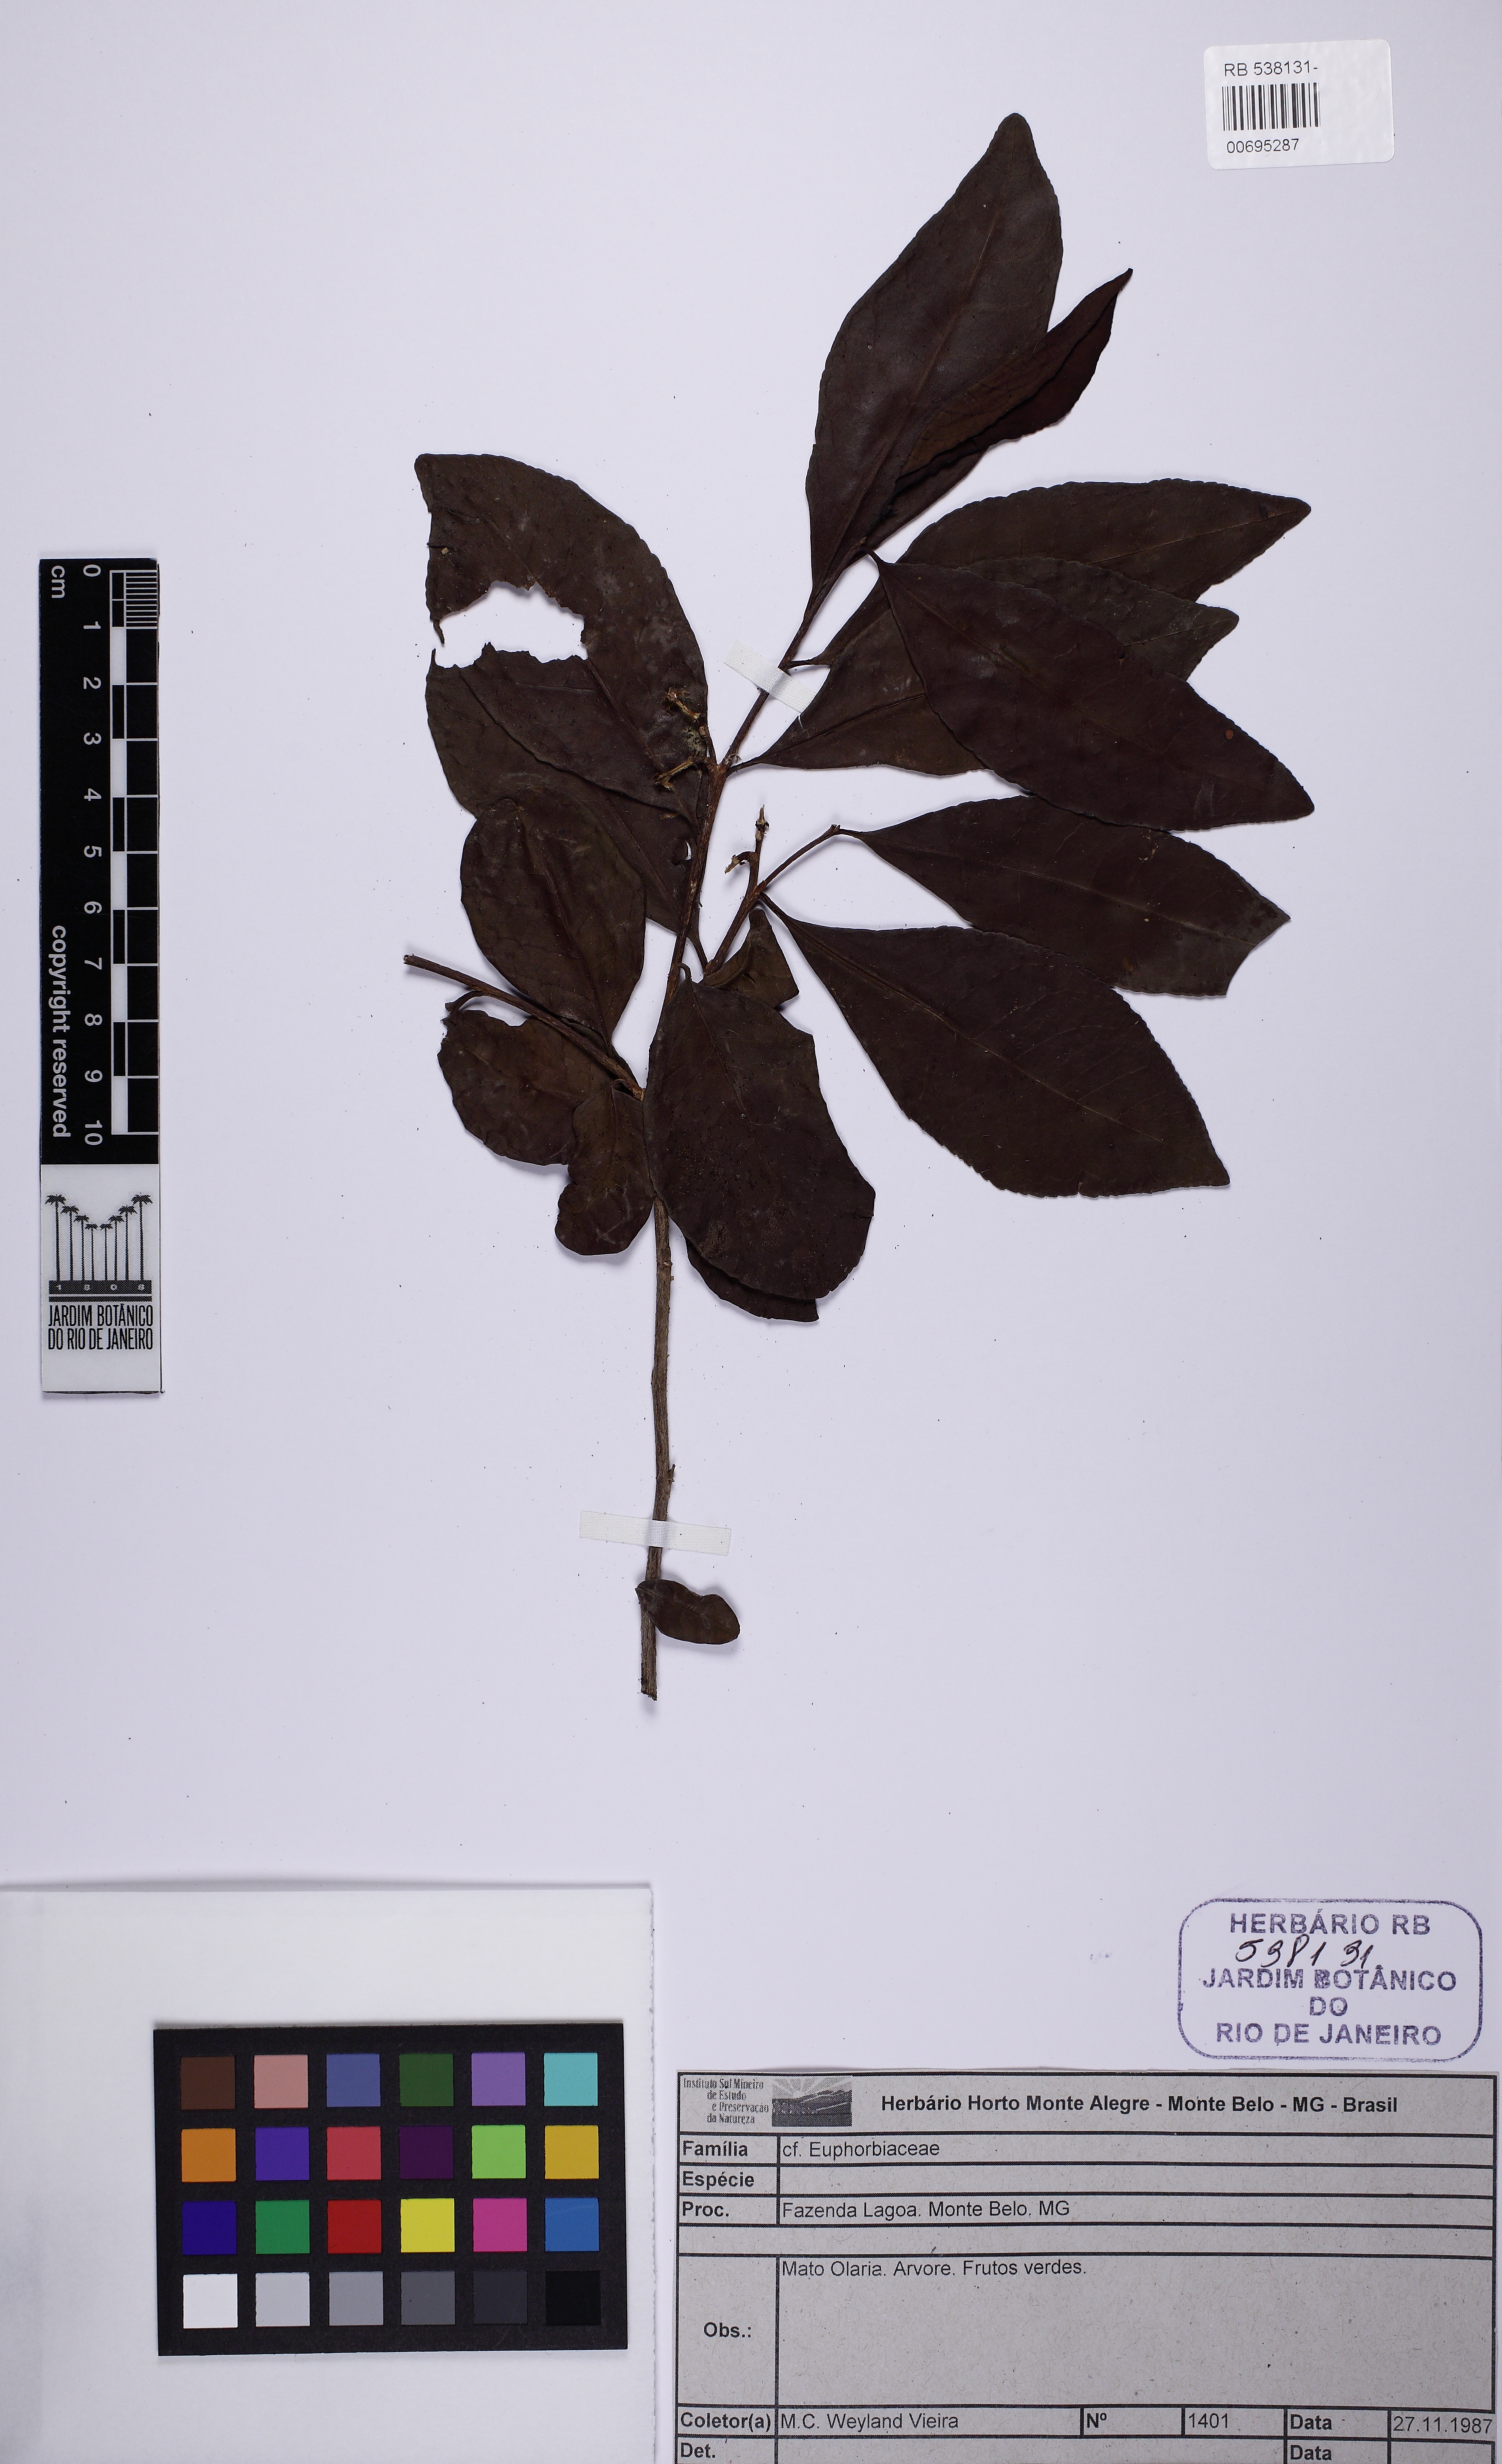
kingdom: Plantae
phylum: Tracheophyta
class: Magnoliopsida
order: Malpighiales
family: Euphorbiaceae
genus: Sebastiania
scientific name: Sebastiania brasiliensis
